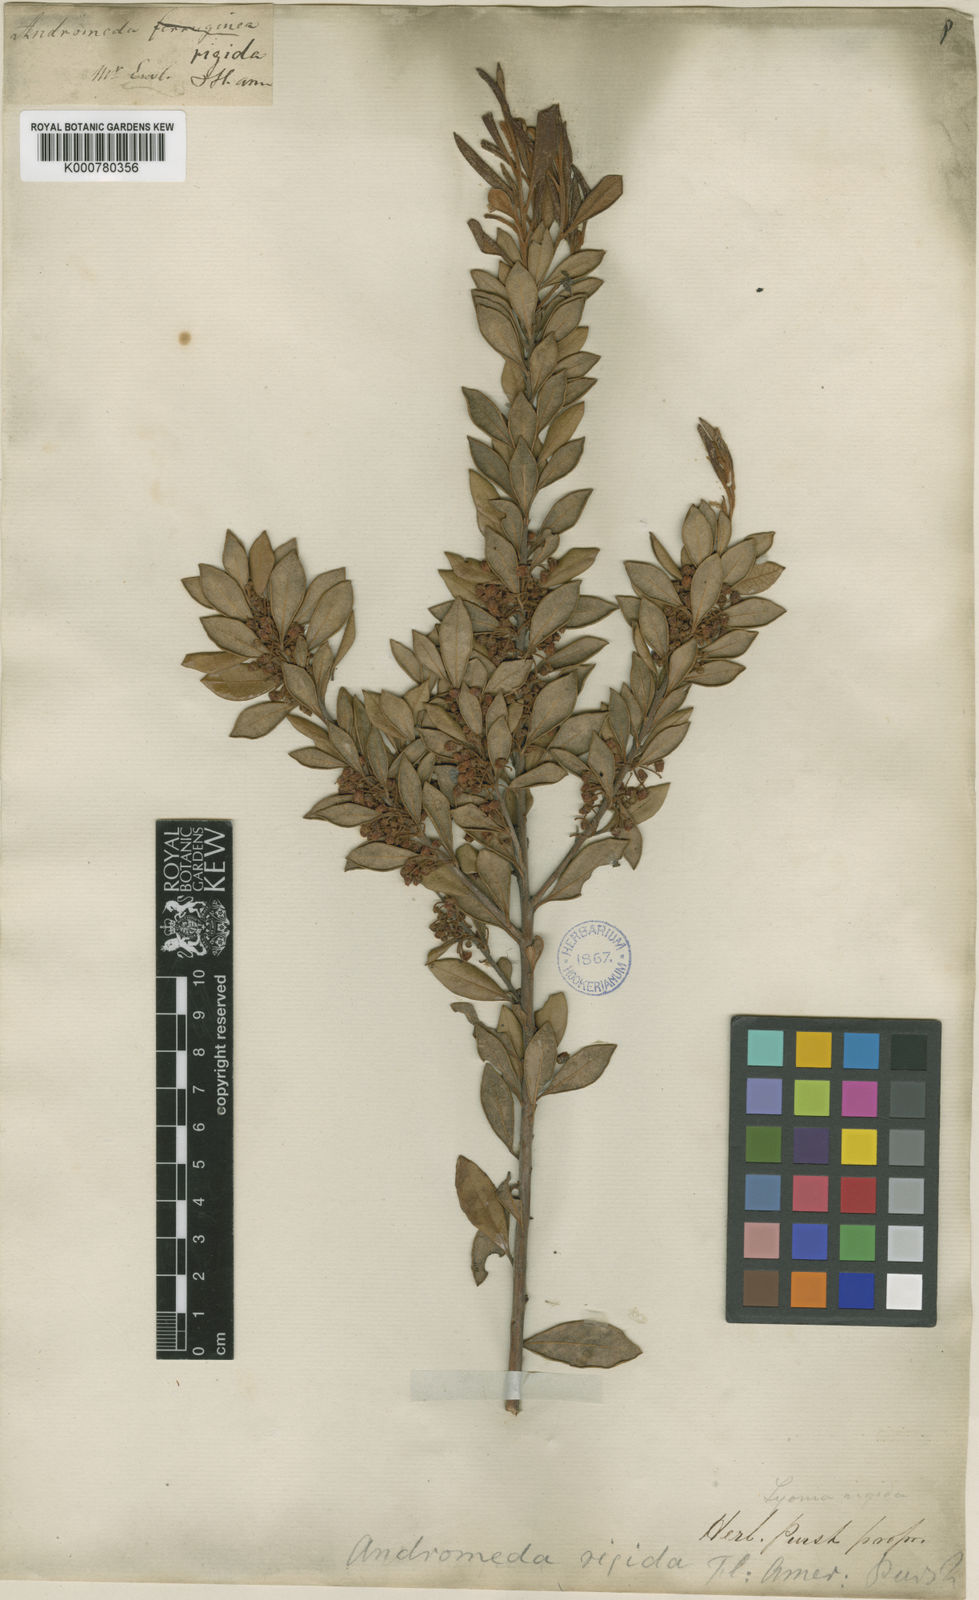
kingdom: Plantae
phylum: Tracheophyta
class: Magnoliopsida
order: Ericales
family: Ericaceae
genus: Lyonia
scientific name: Lyonia ferruginea
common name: Rusty lyonia
